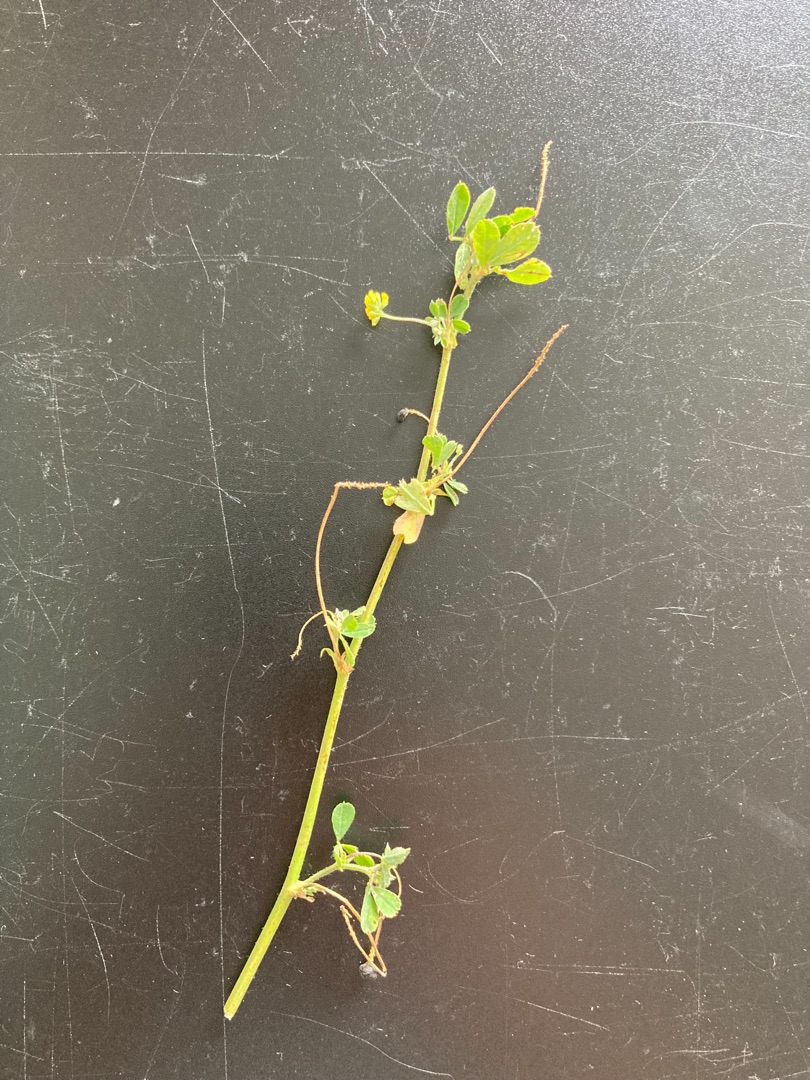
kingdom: Plantae
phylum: Tracheophyta
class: Magnoliopsida
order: Fabales
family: Fabaceae
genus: Medicago
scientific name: Medicago lupulina
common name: Humle-sneglebælg
